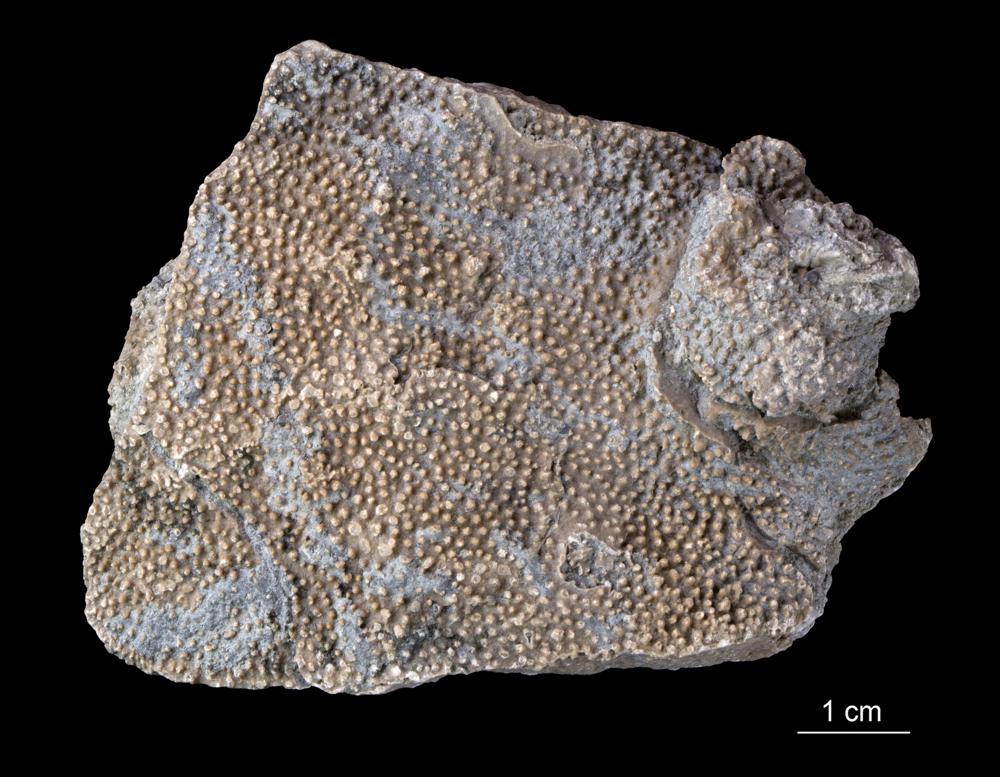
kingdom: Animalia
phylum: Porifera
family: Labechiidae
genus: Labechia
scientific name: Labechia Monticularia conferta
